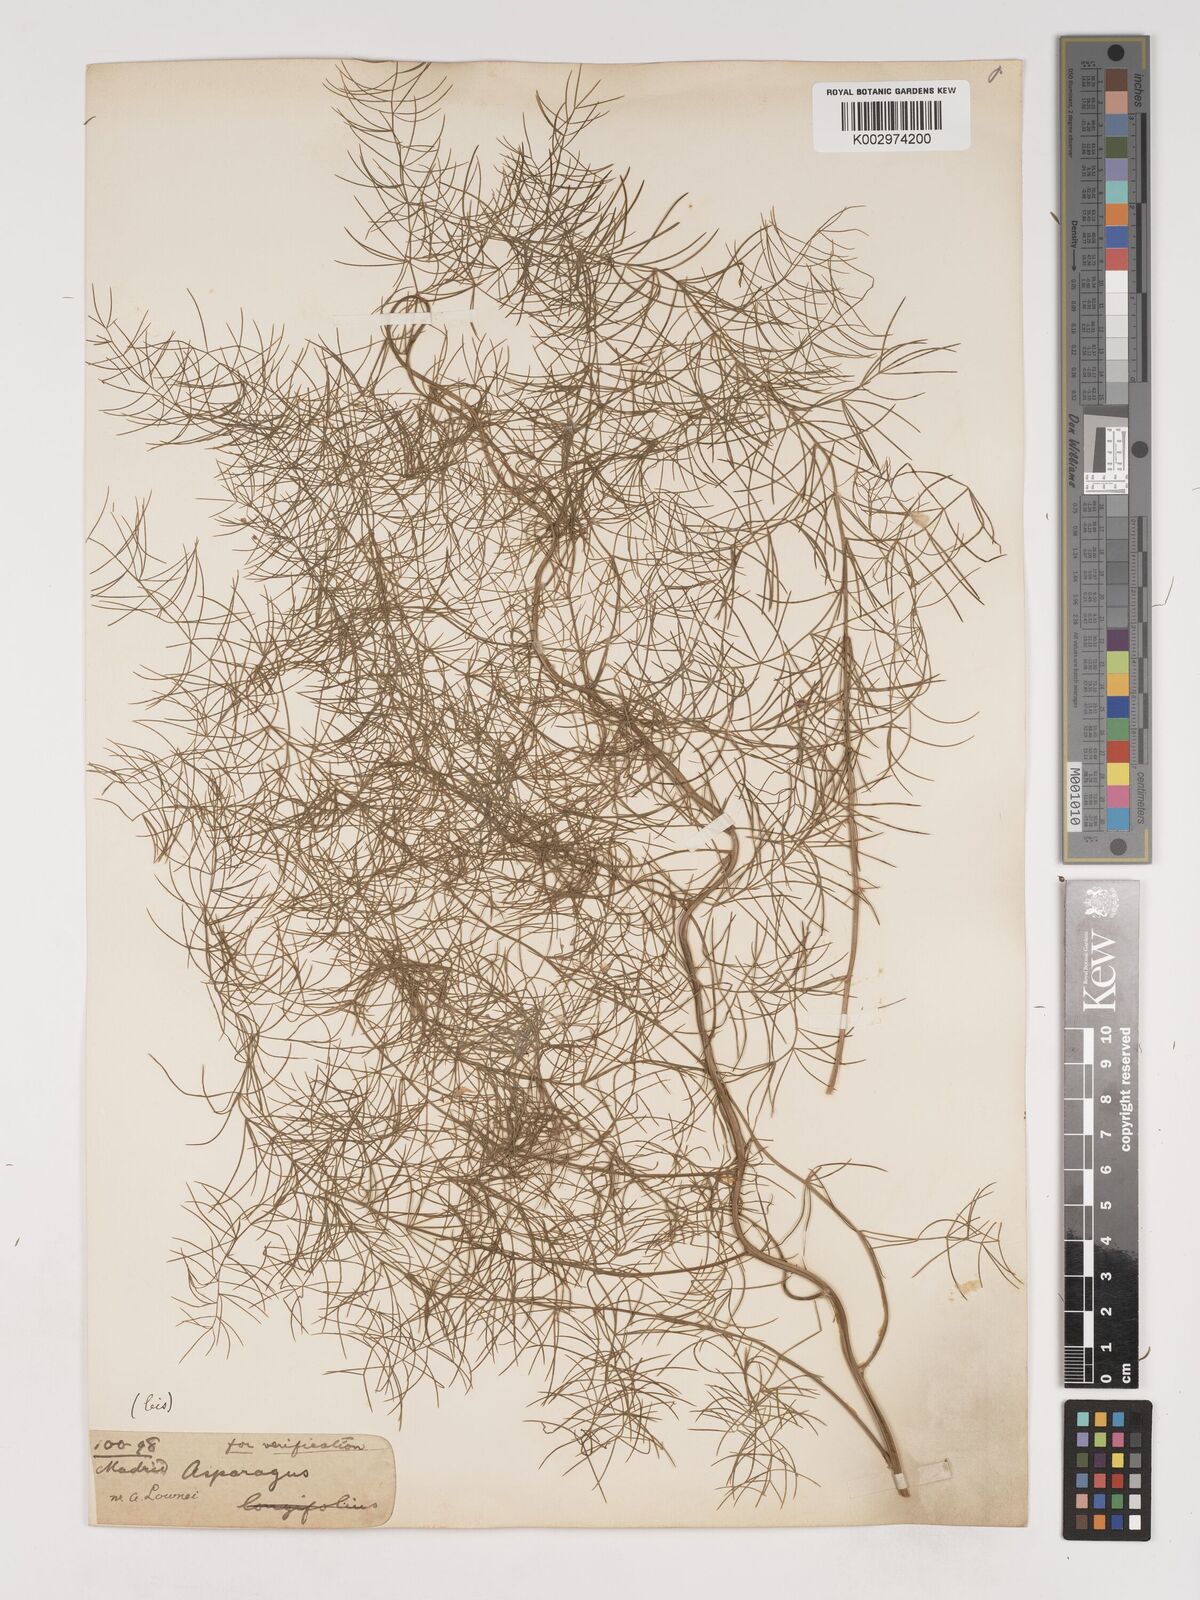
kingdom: Plantae
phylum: Tracheophyta
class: Liliopsida
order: Asparagales
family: Asparagaceae
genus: Asparagus
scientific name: Asparagus palaestinus
